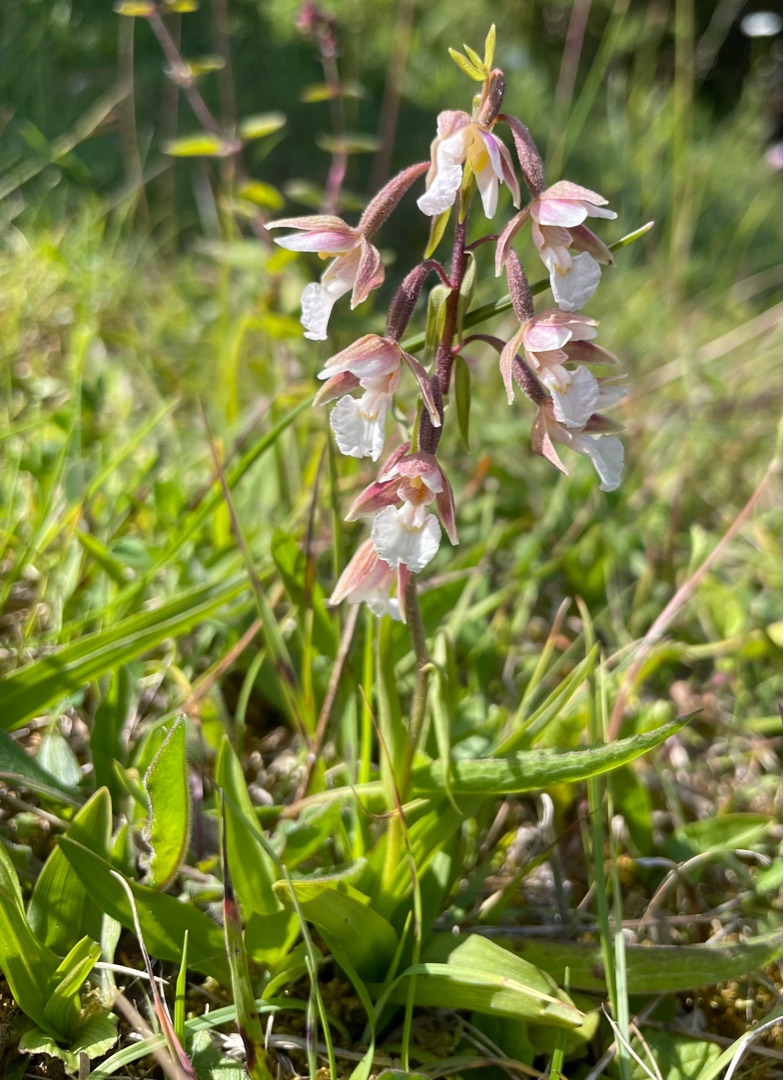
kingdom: Plantae
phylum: Tracheophyta
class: Liliopsida
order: Asparagales
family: Orchidaceae
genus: Epipactis
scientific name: Epipactis palustris
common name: Sump-hullæbe
